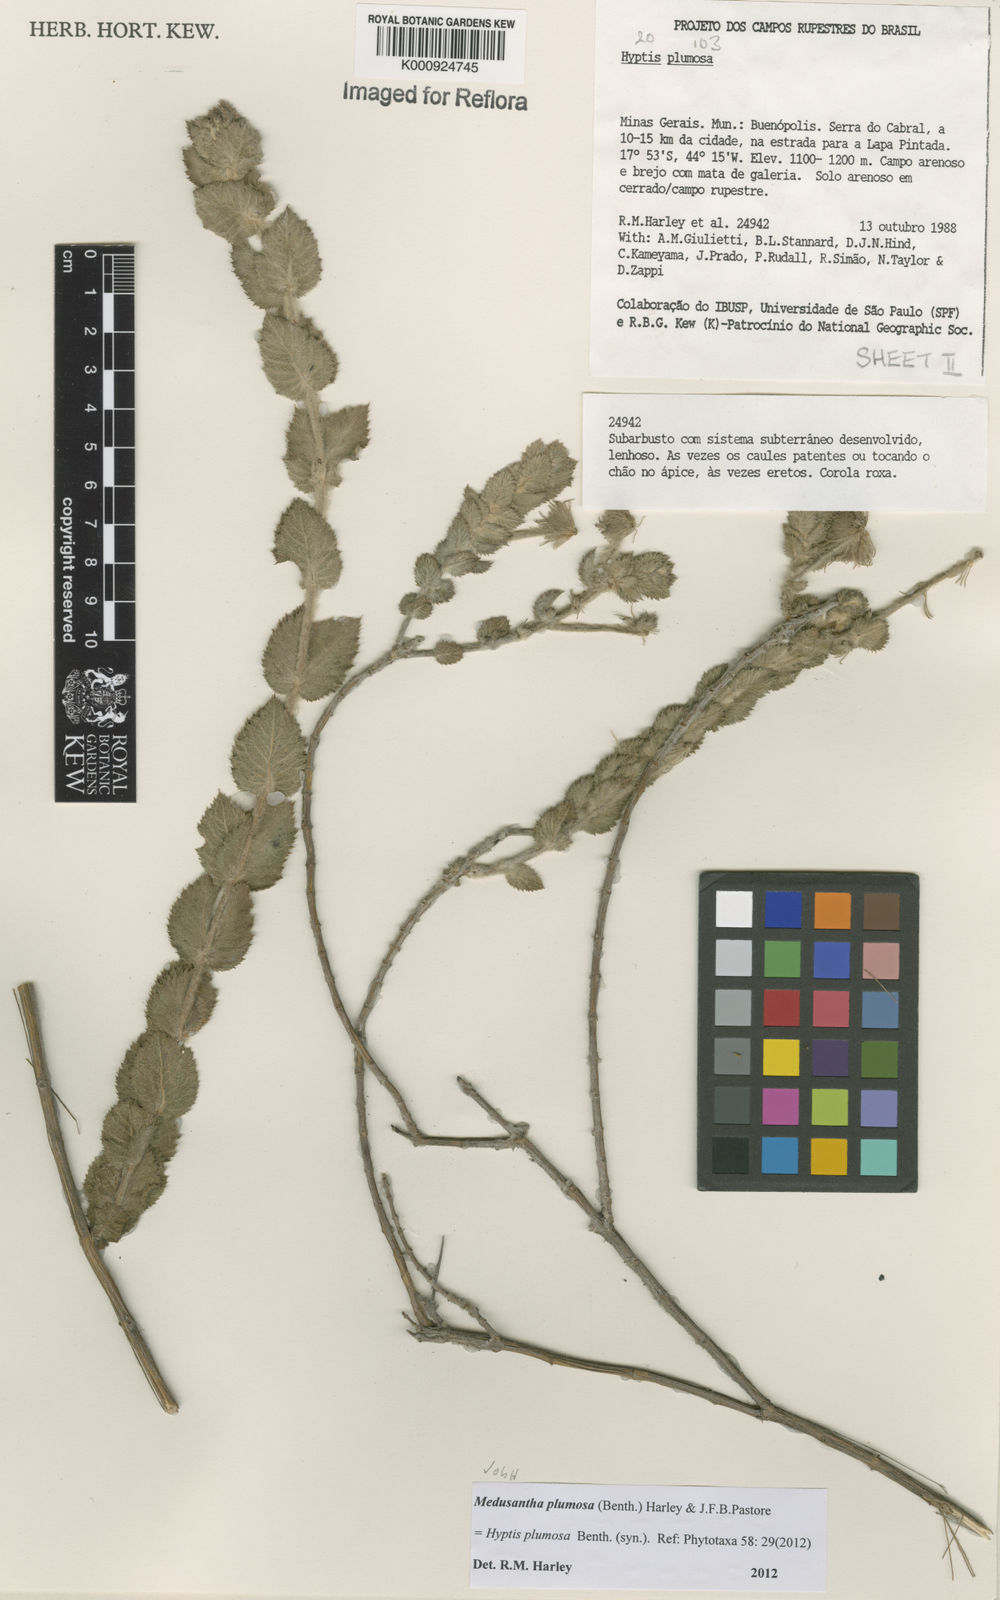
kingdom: Plantae
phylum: Tracheophyta
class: Magnoliopsida
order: Lamiales
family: Lamiaceae
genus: Medusantha
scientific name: Medusantha plumosa
